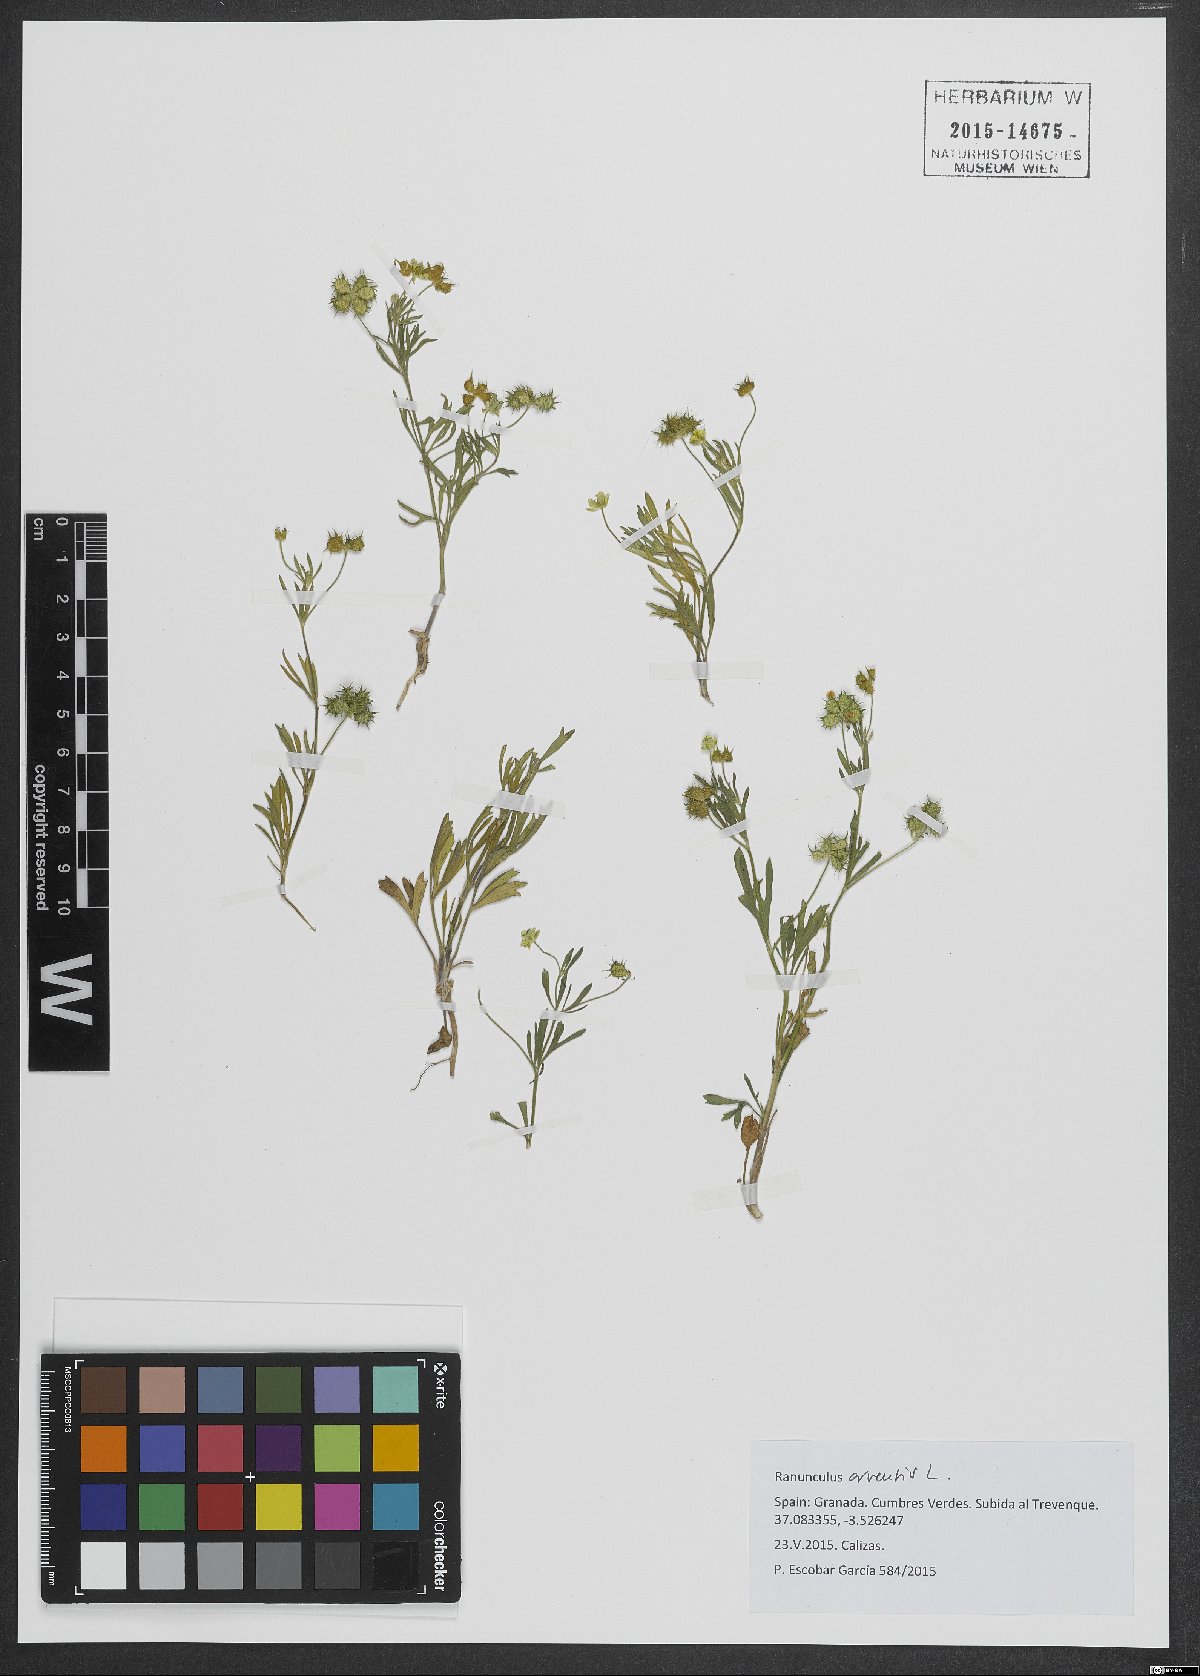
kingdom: Plantae
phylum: Tracheophyta
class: Magnoliopsida
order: Ranunculales
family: Ranunculaceae
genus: Ranunculus
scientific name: Ranunculus arvensis
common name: Corn buttercup
